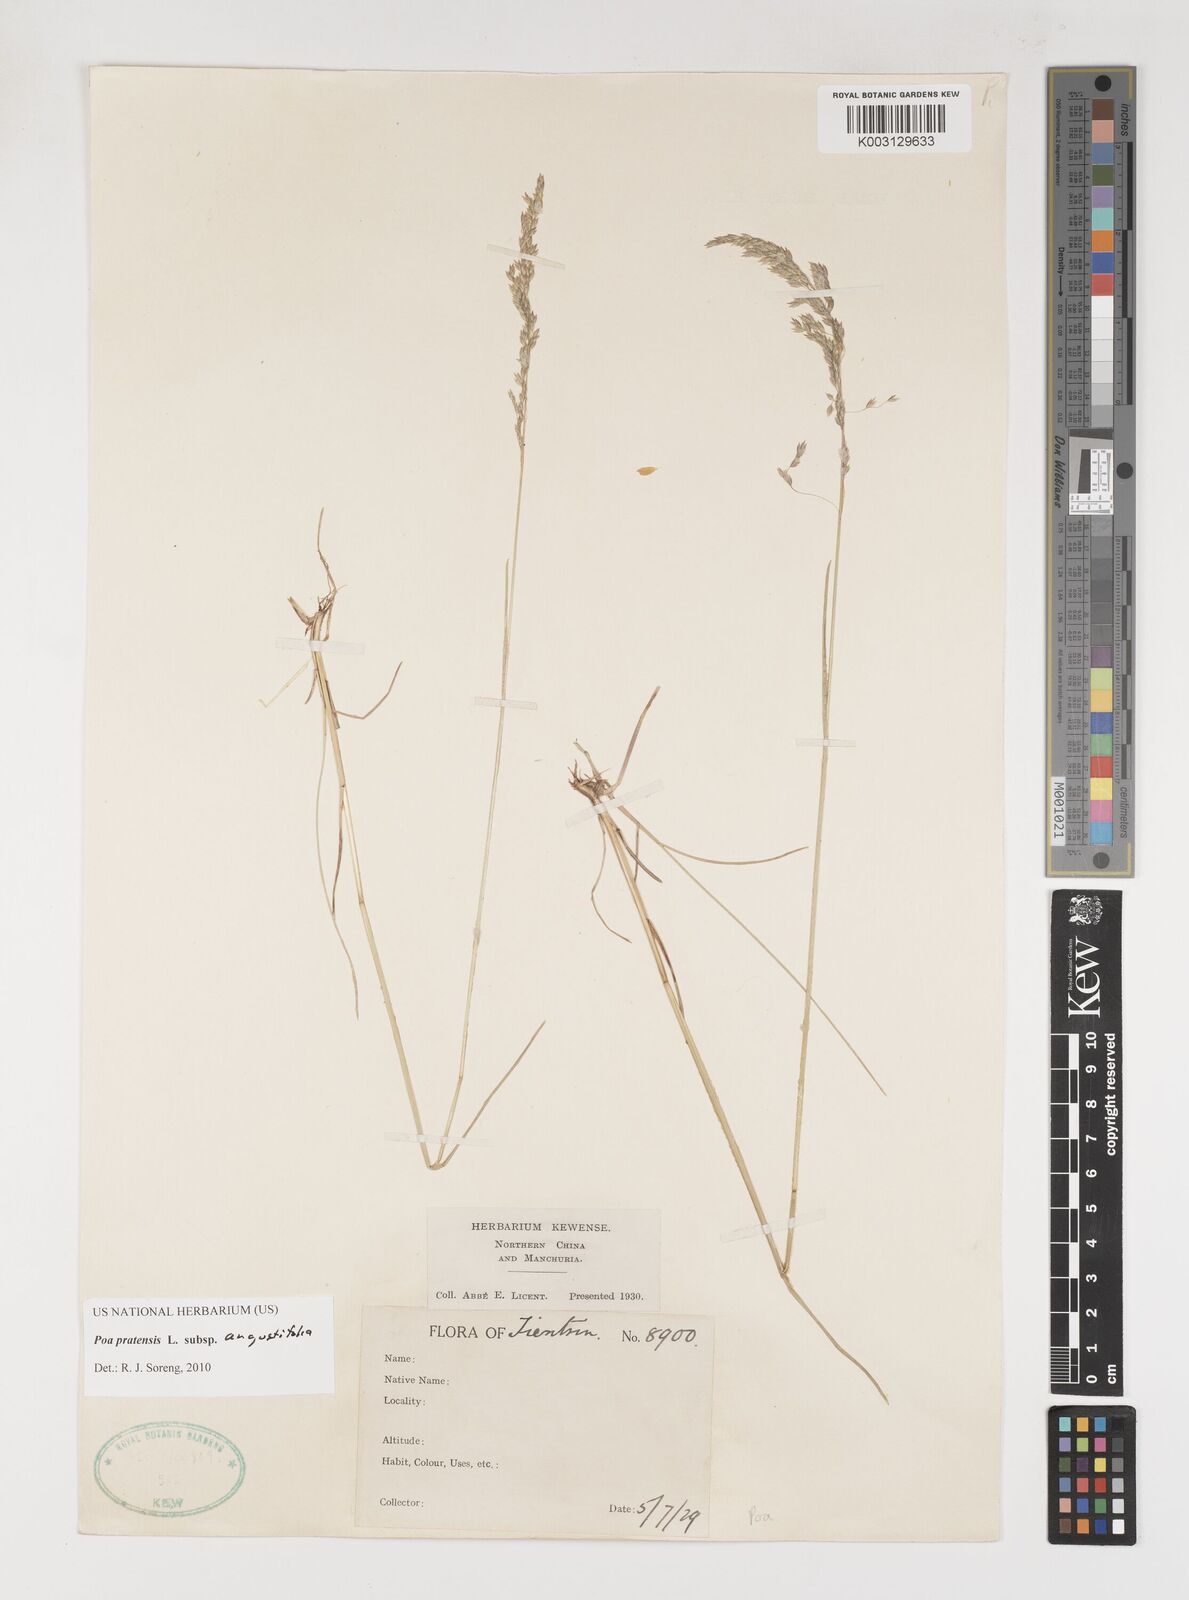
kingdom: Plantae
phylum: Tracheophyta
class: Liliopsida
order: Poales
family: Poaceae
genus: Poa
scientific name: Poa angustifolia
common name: Narrow-leaved meadow-grass
